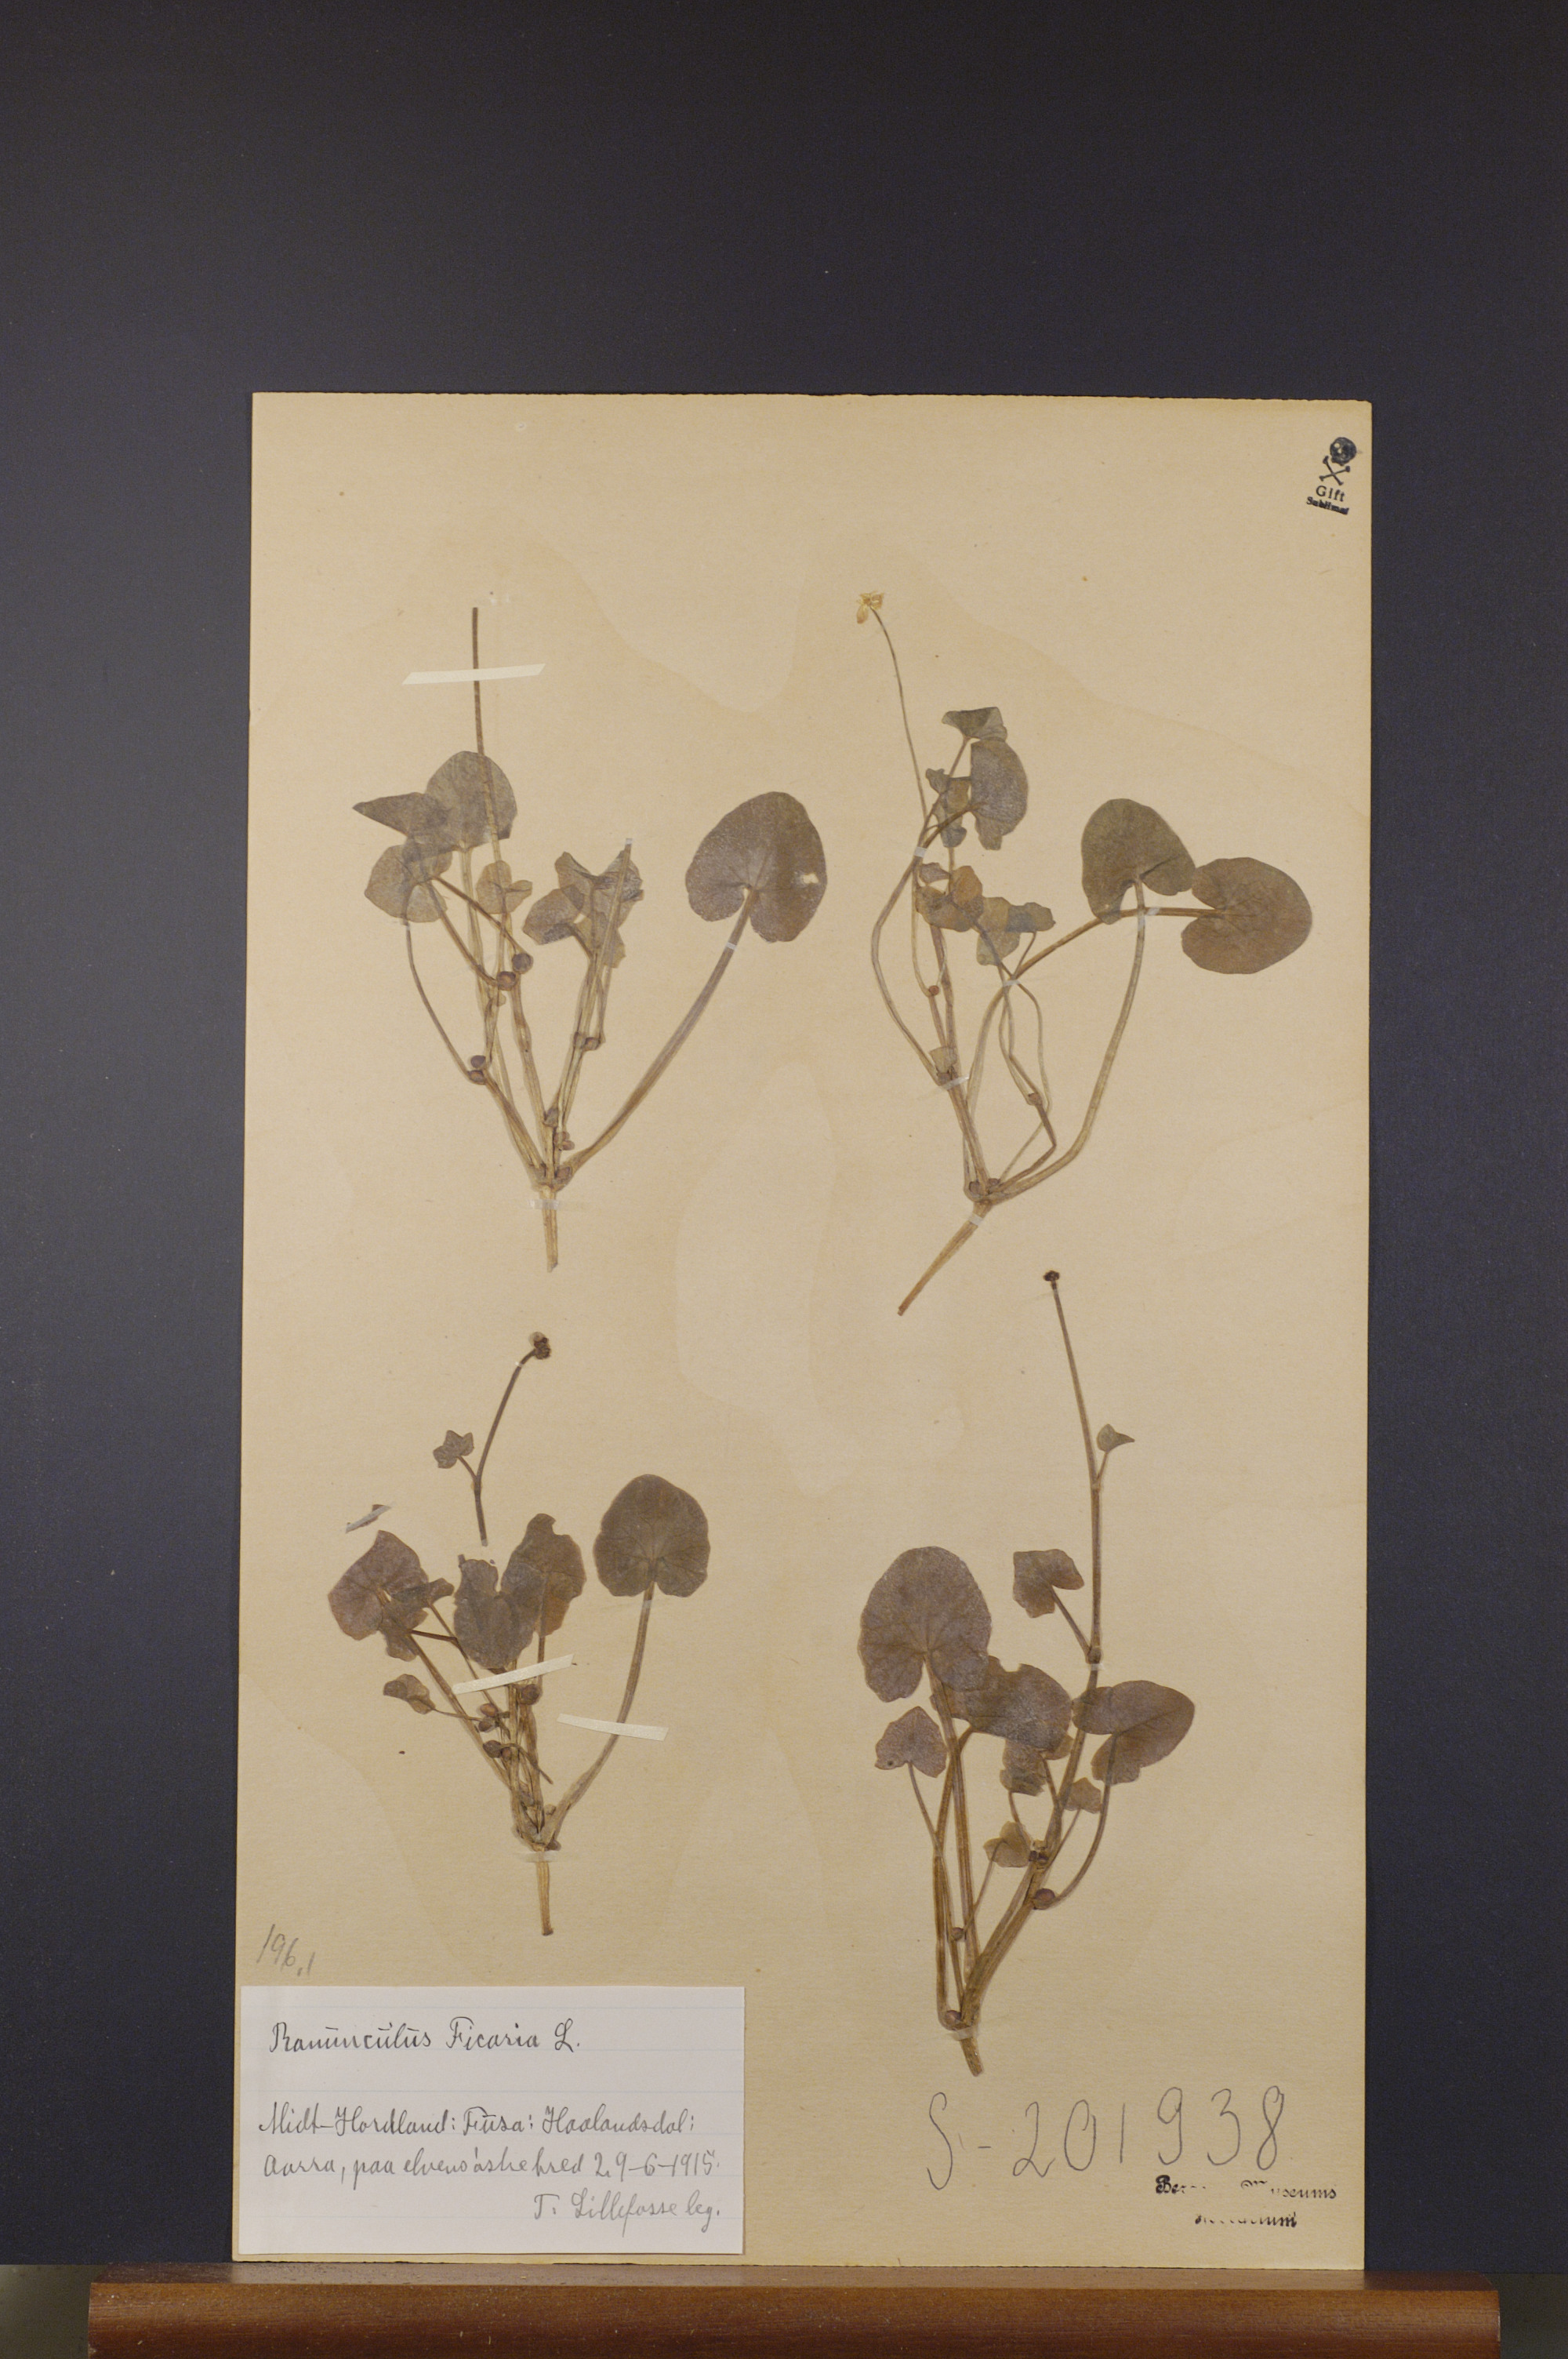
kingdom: Plantae
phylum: Tracheophyta
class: Magnoliopsida
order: Ranunculales
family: Ranunculaceae
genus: Ficaria
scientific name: Ficaria verna
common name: Lesser celandine
